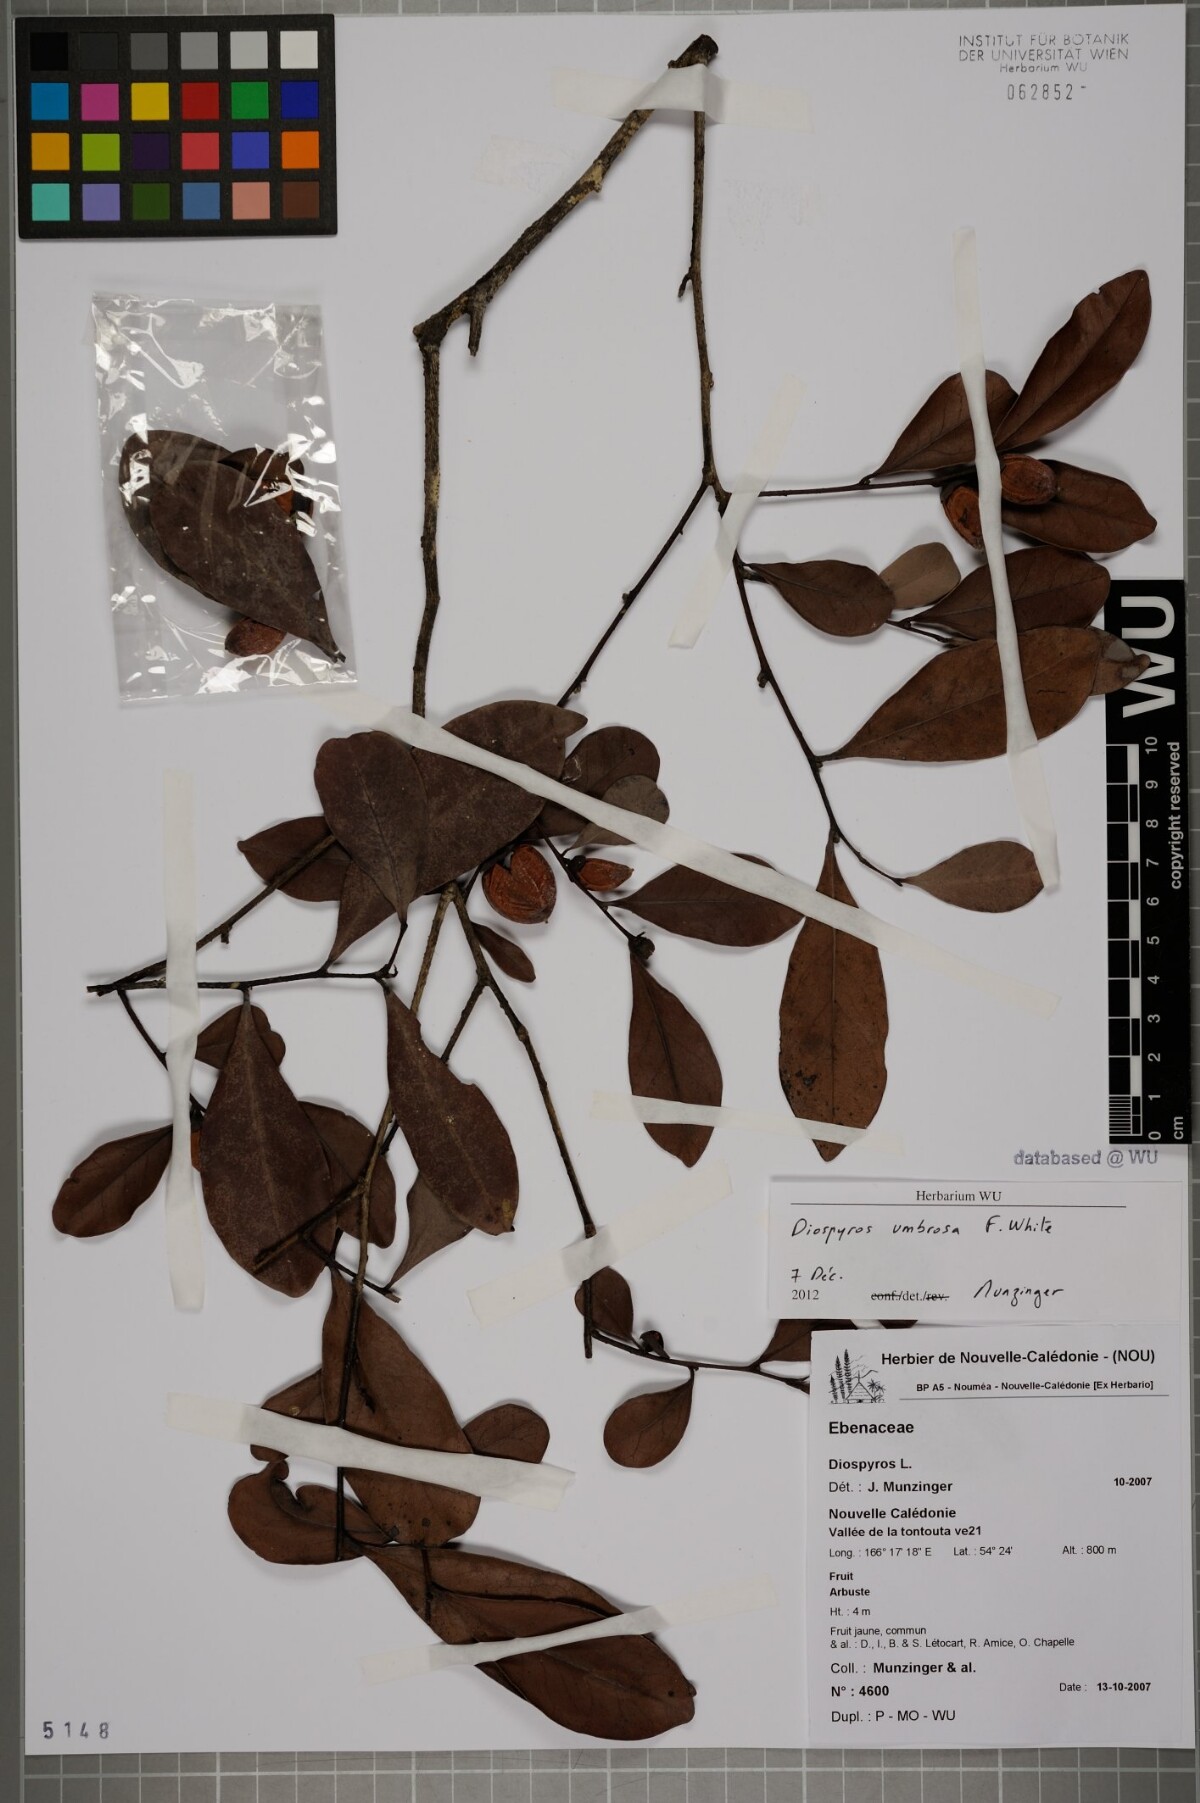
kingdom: Plantae
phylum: Tracheophyta
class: Magnoliopsida
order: Ericales
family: Ebenaceae
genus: Diospyros
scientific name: Diospyros umbrosa
